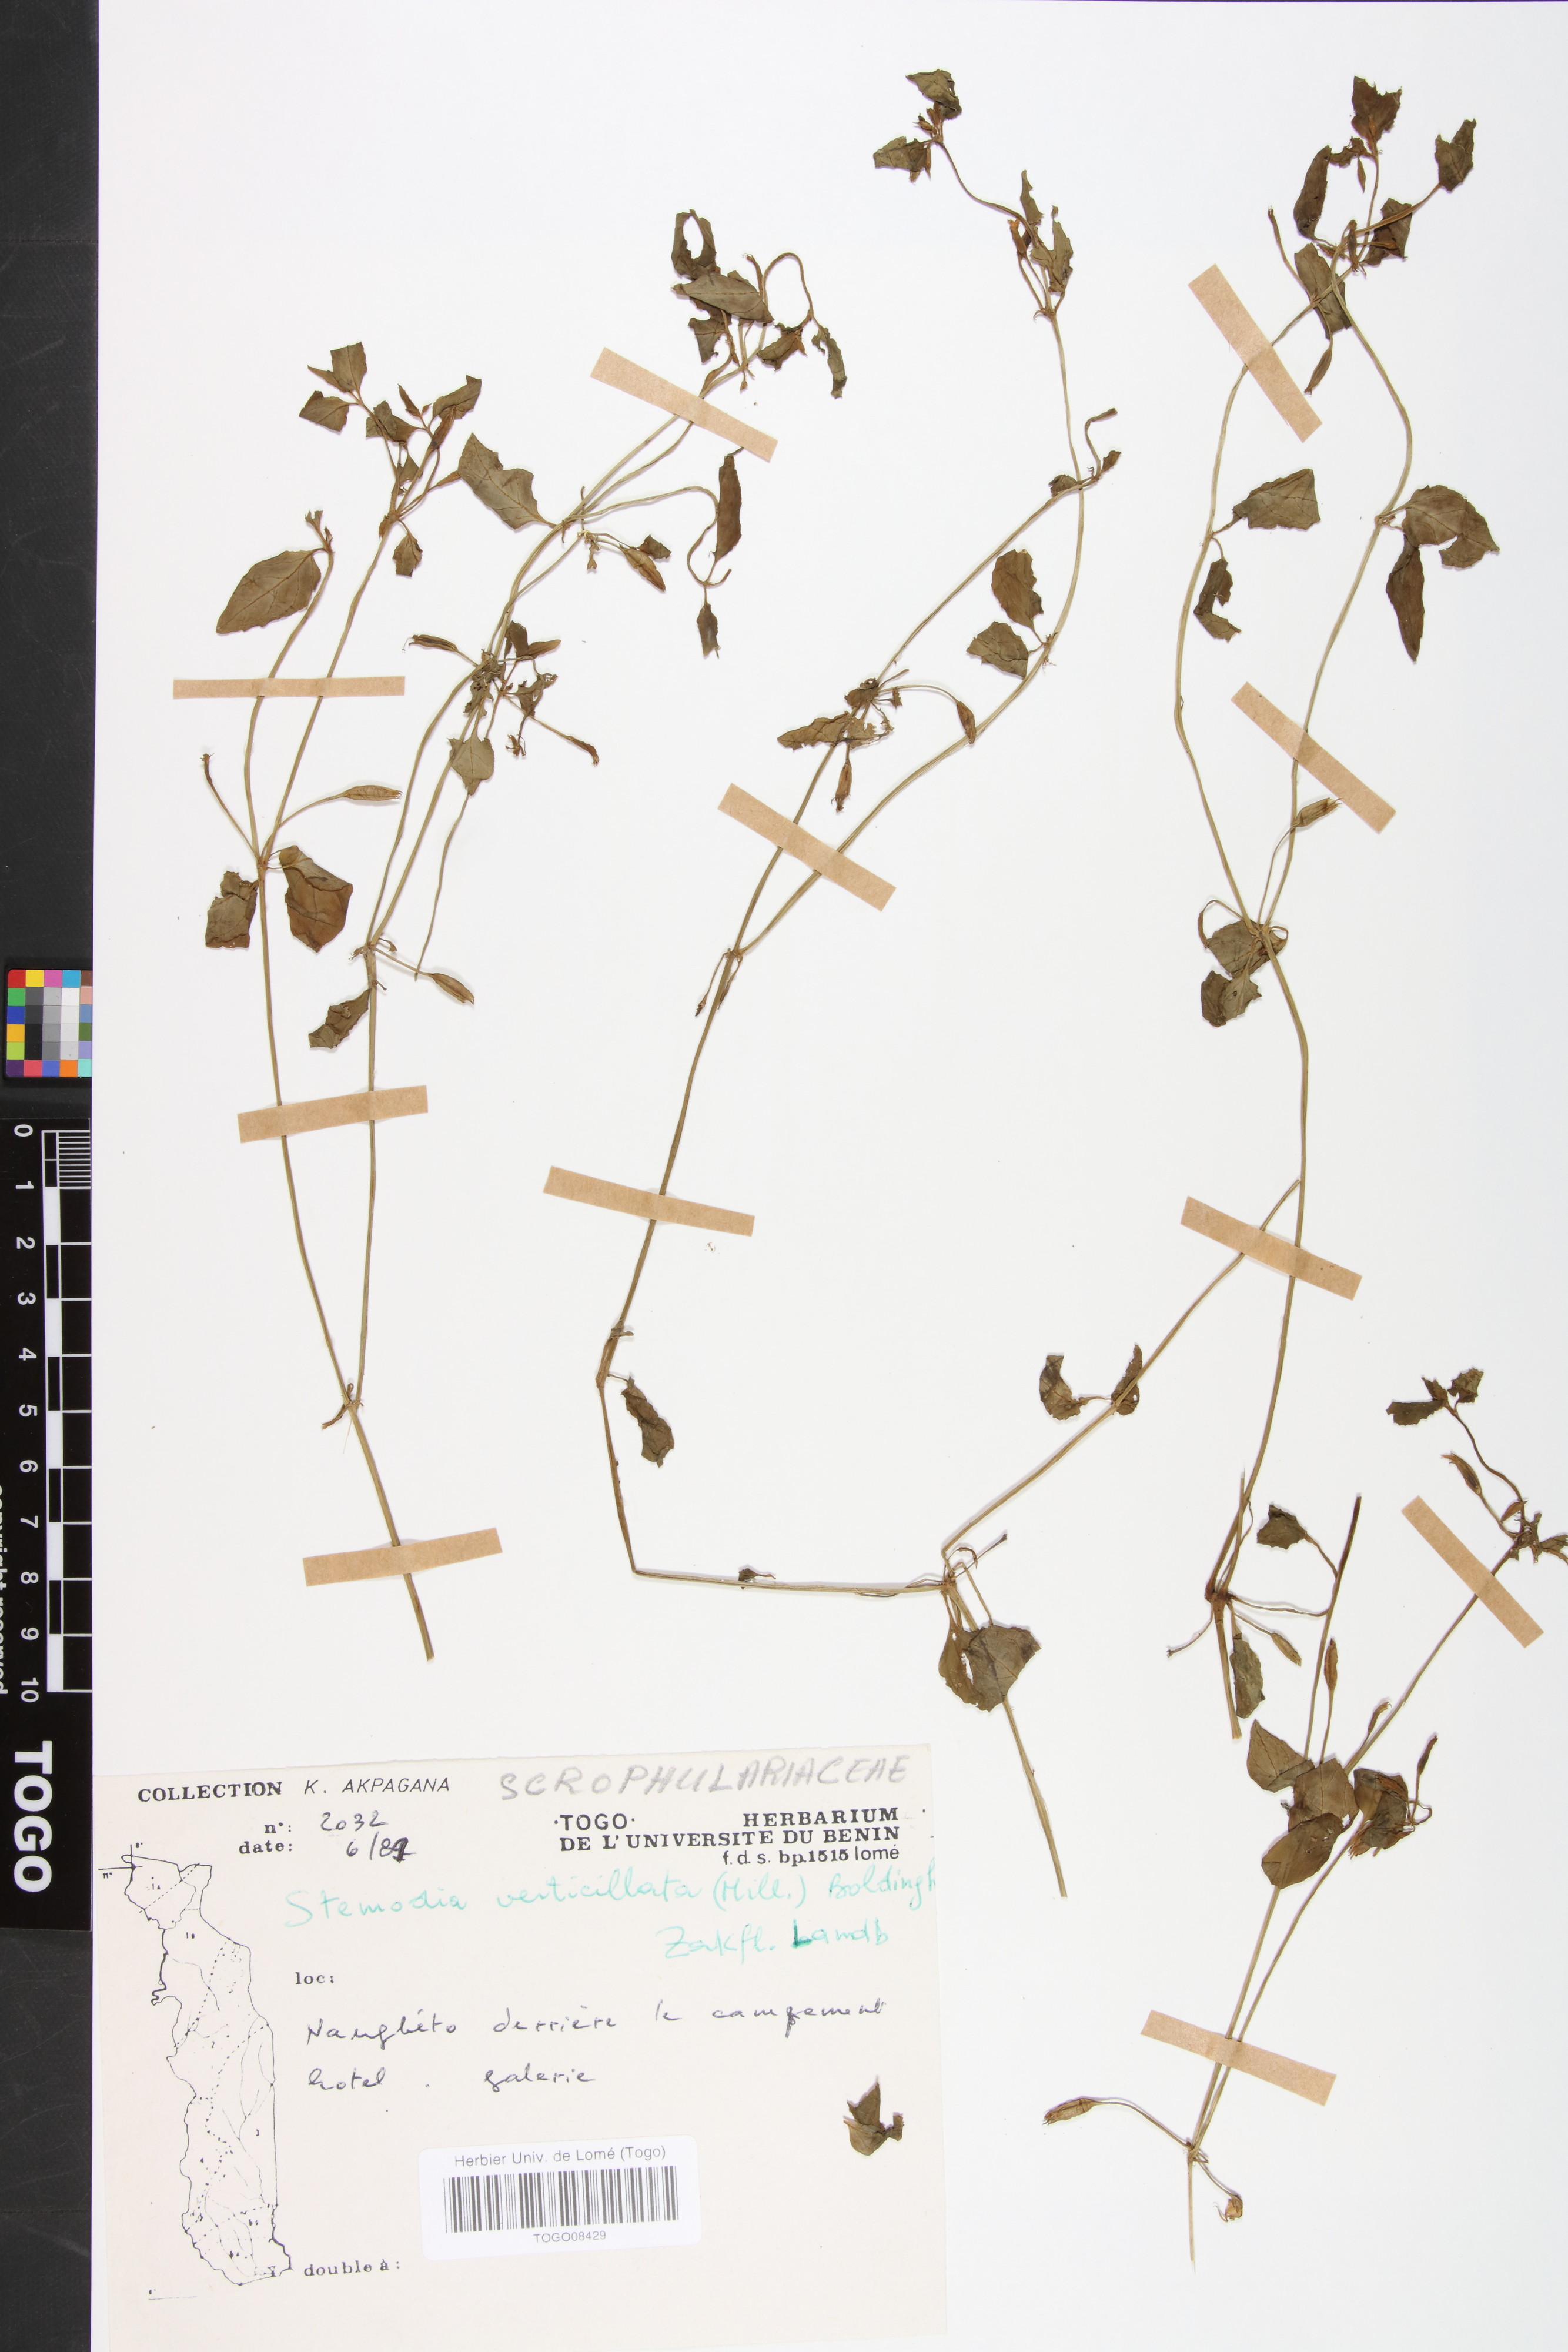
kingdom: Plantae
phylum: Tracheophyta
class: Magnoliopsida
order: Lamiales
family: Plantaginaceae
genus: Stemodia
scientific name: Stemodia verticillata
